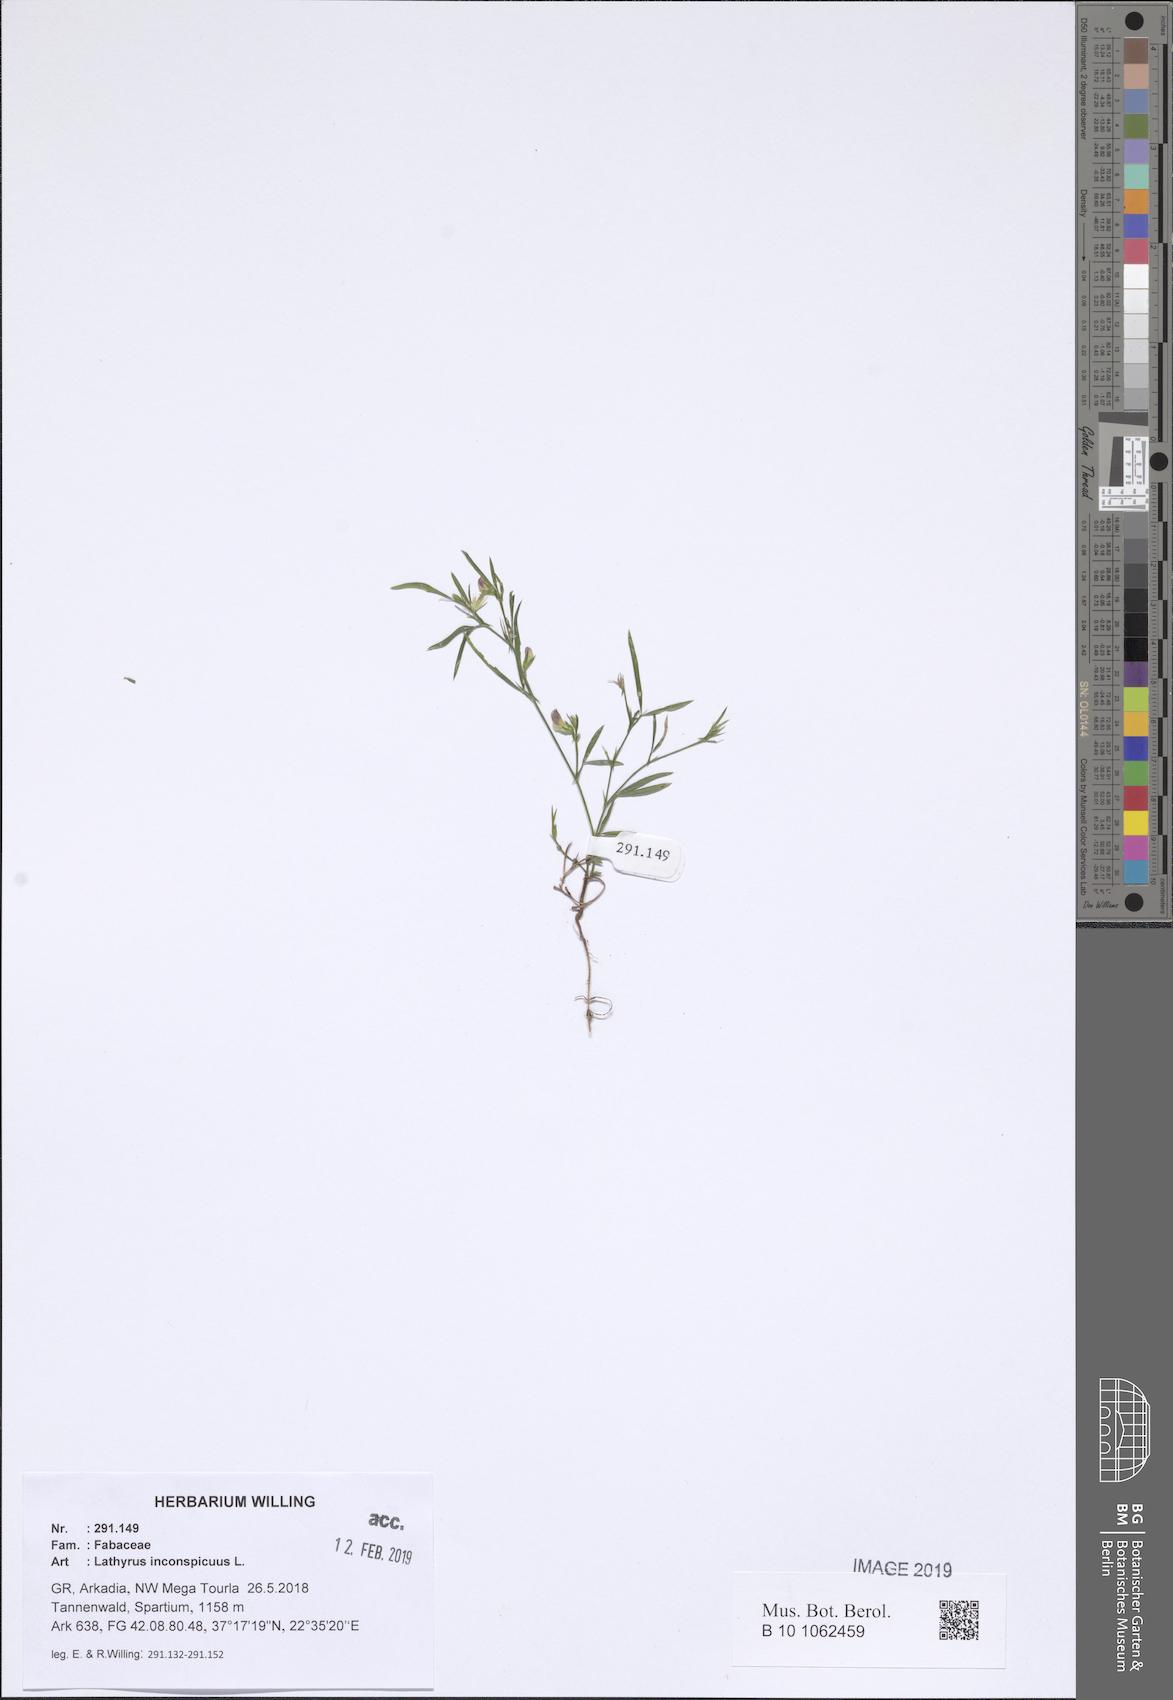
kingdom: Plantae
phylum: Tracheophyta
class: Magnoliopsida
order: Fabales
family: Fabaceae
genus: Lathyrus
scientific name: Lathyrus inconspicuus
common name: Inconspicuous pea
